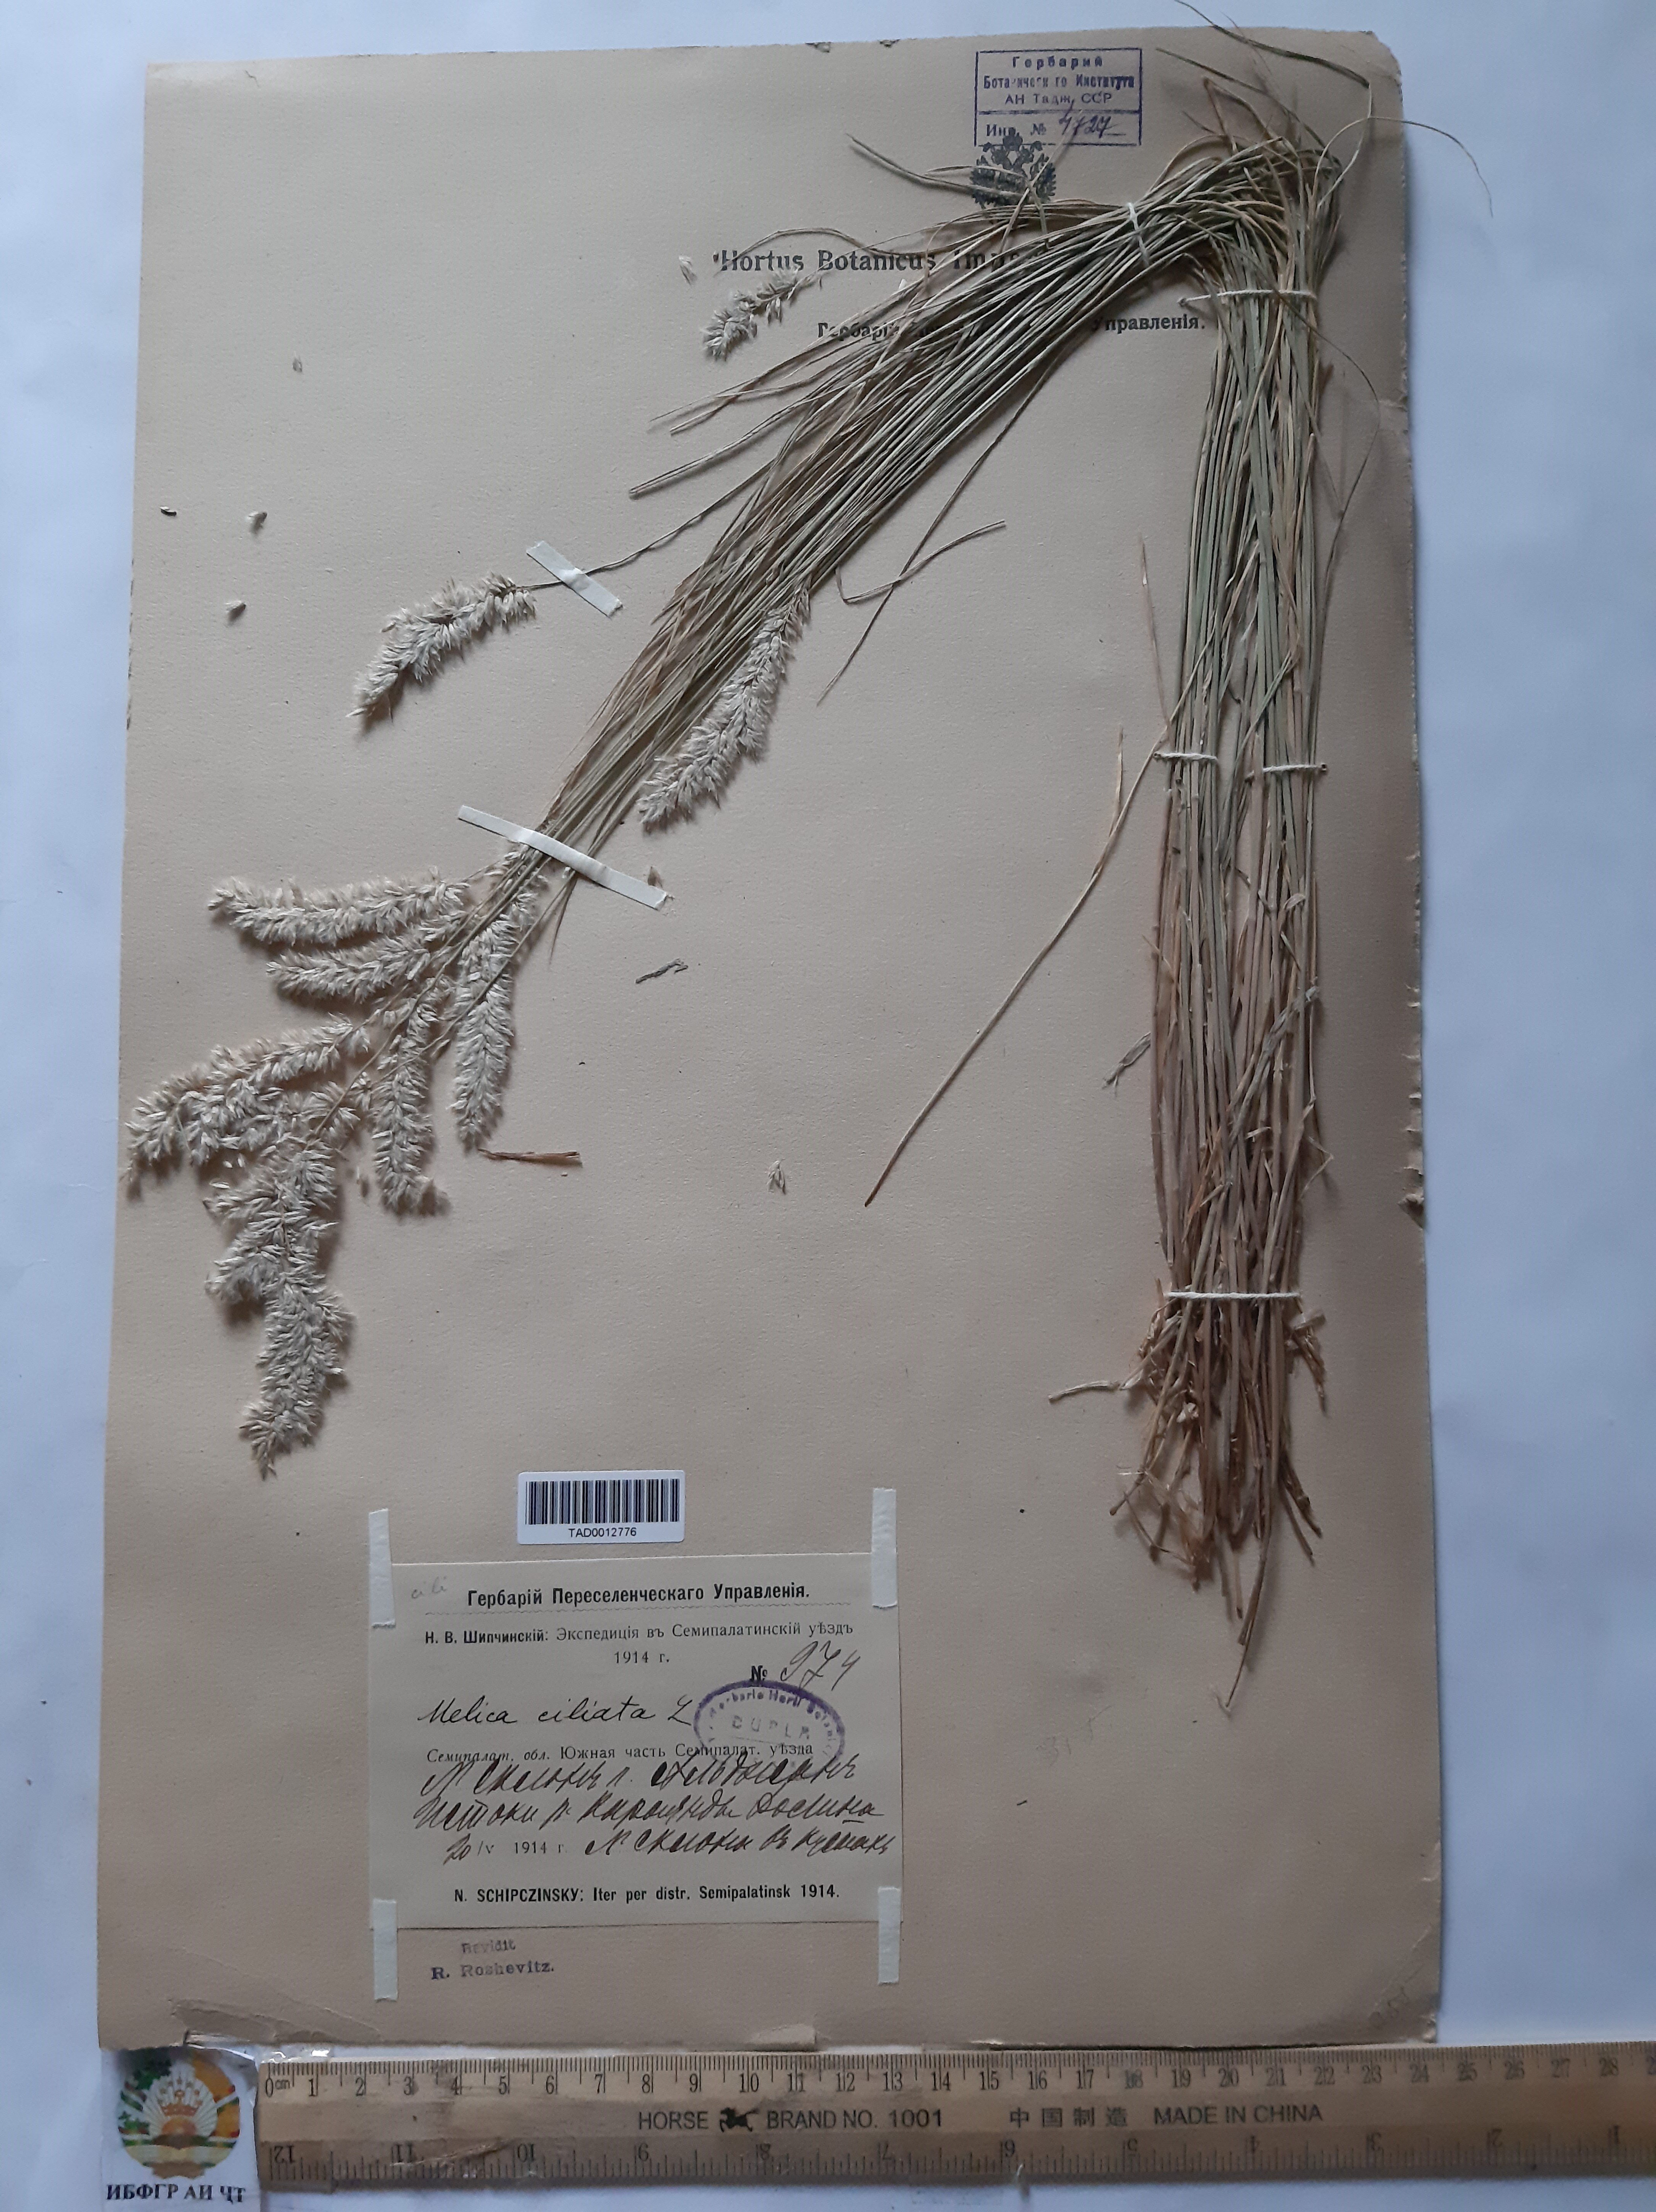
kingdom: Plantae
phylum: Tracheophyta
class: Liliopsida
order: Poales
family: Poaceae
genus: Melica
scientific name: Melica ciliata
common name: Hairy melicgrass
